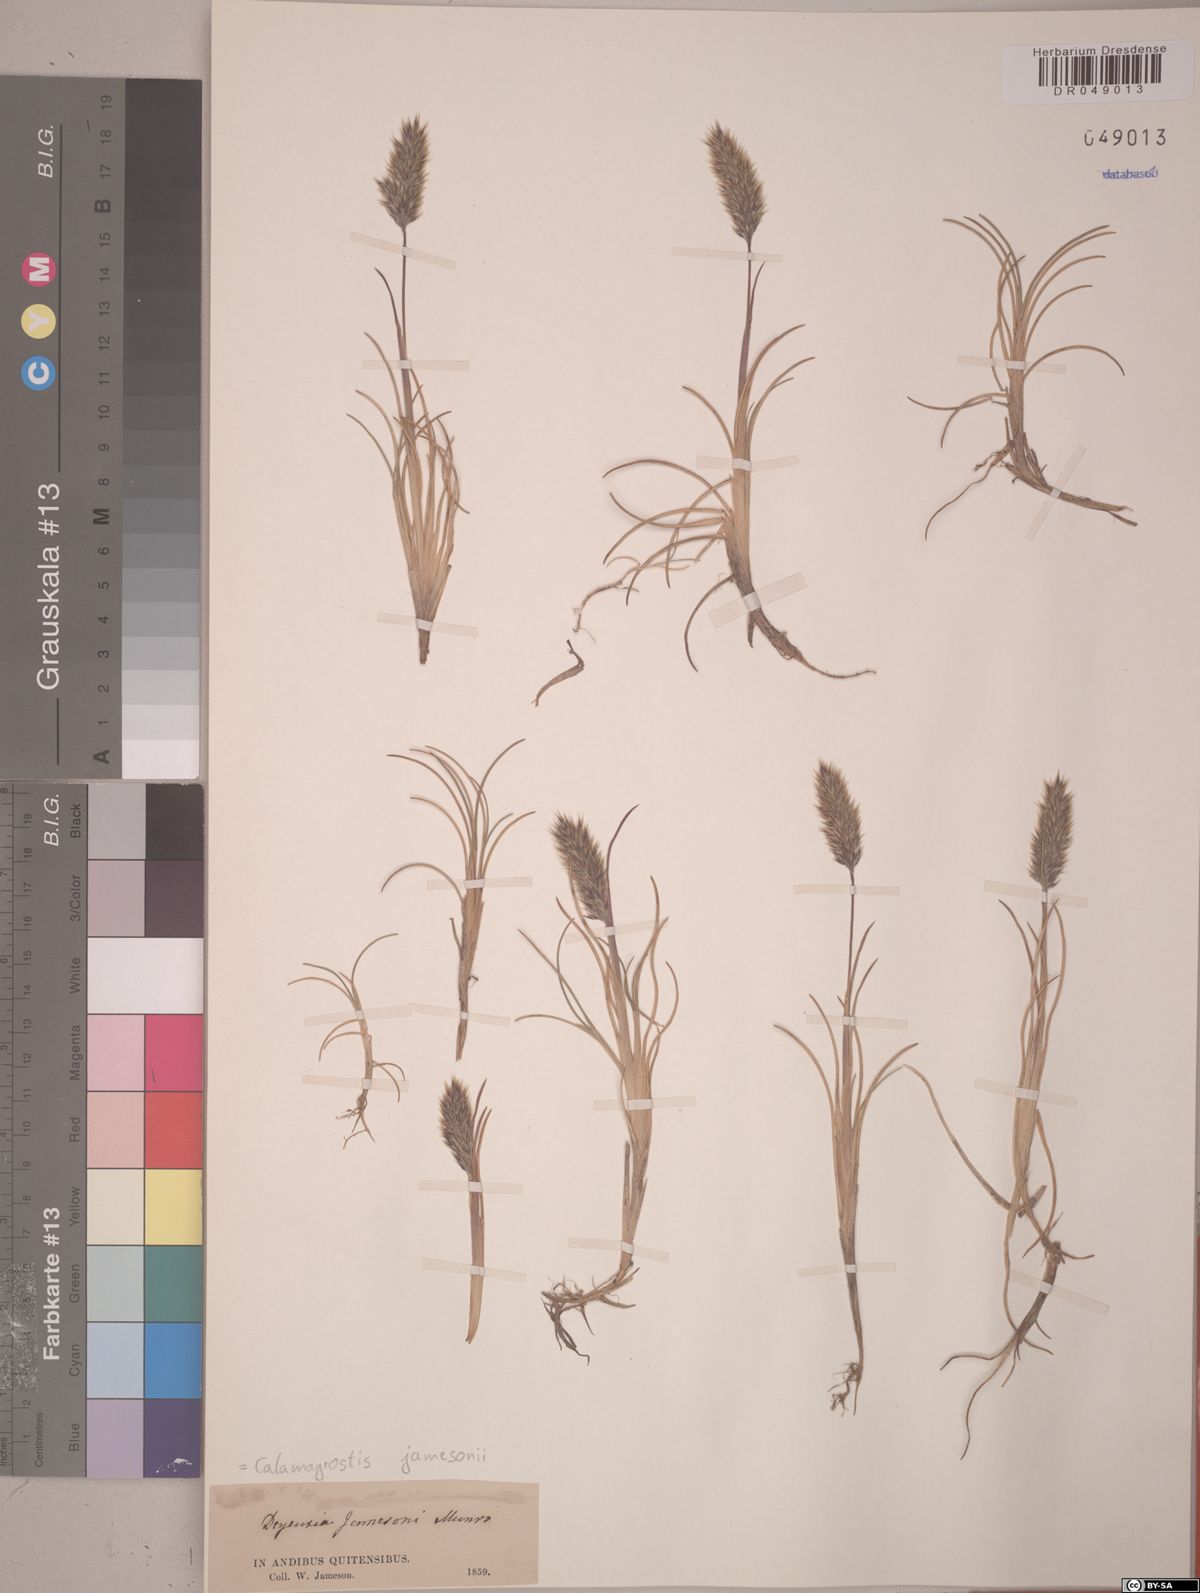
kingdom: Plantae
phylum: Tracheophyta
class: Liliopsida
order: Poales
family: Poaceae
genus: Cinnagrostis
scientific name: Cinnagrostis jamesonii
